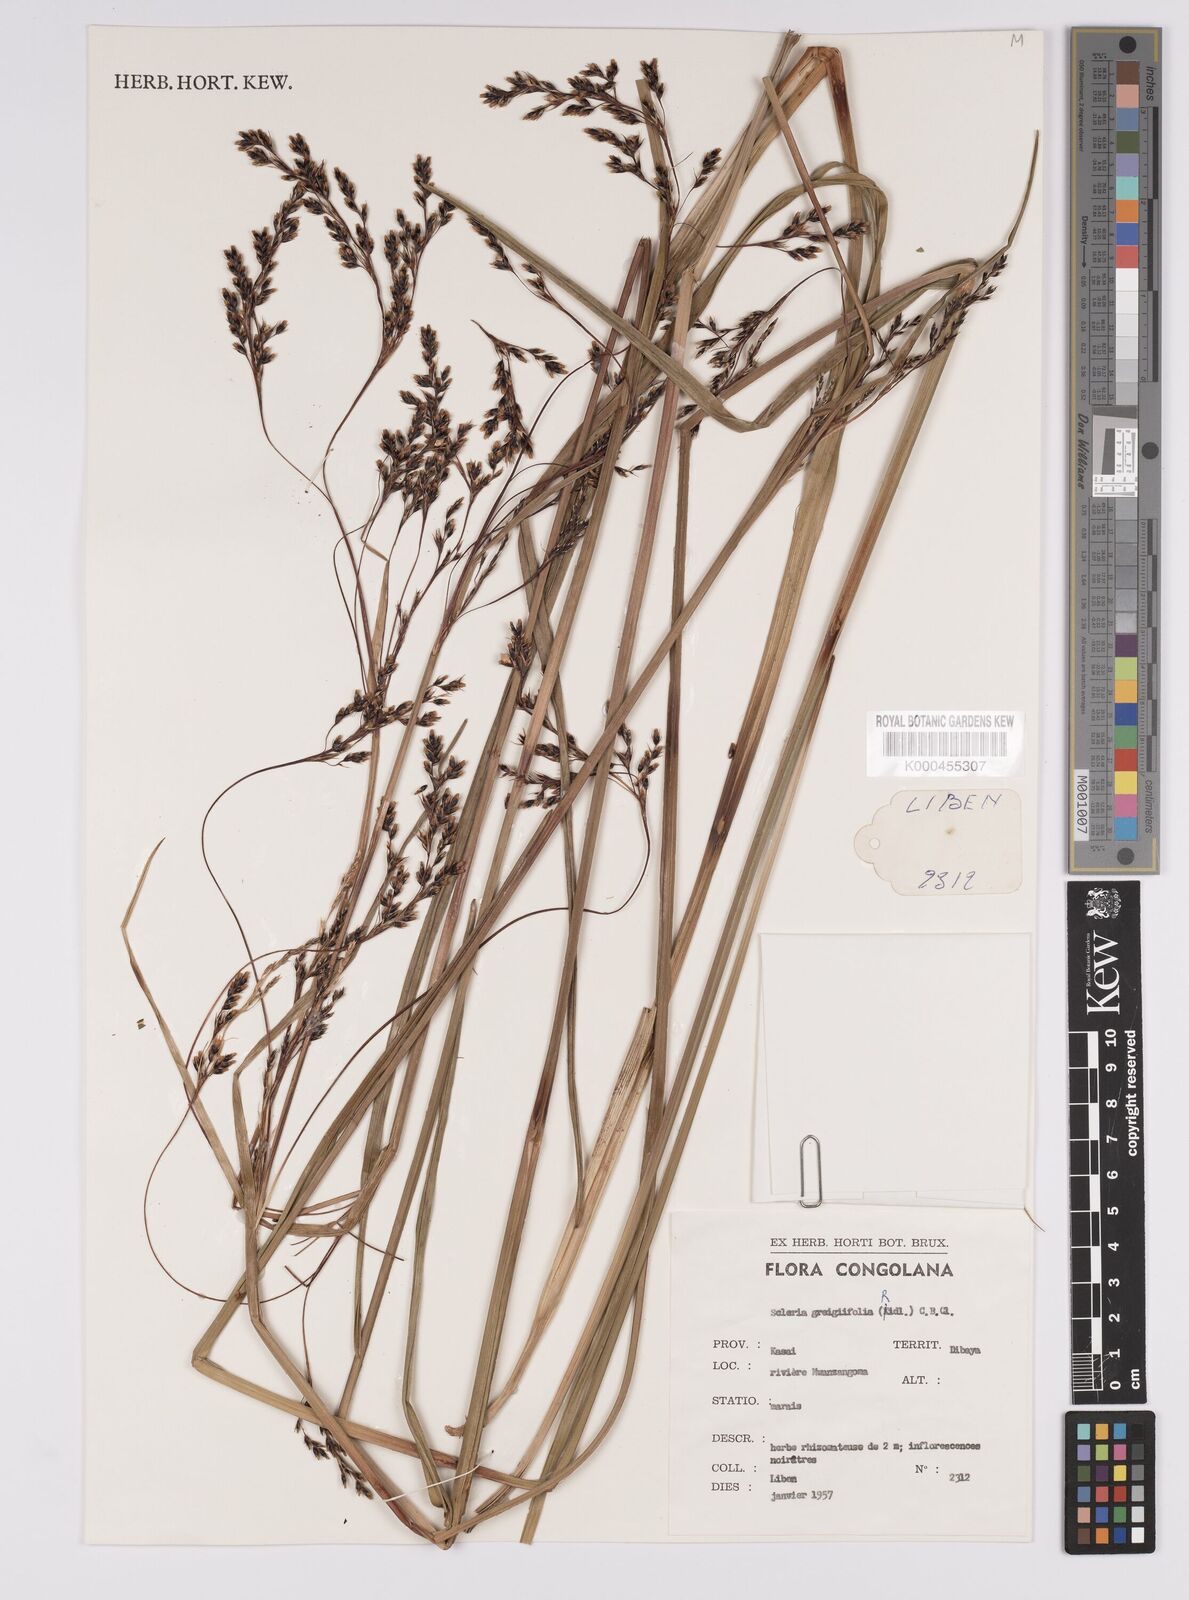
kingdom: Plantae
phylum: Tracheophyta
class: Liliopsida
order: Poales
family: Cyperaceae
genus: Scleria
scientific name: Scleria greigiifolia
